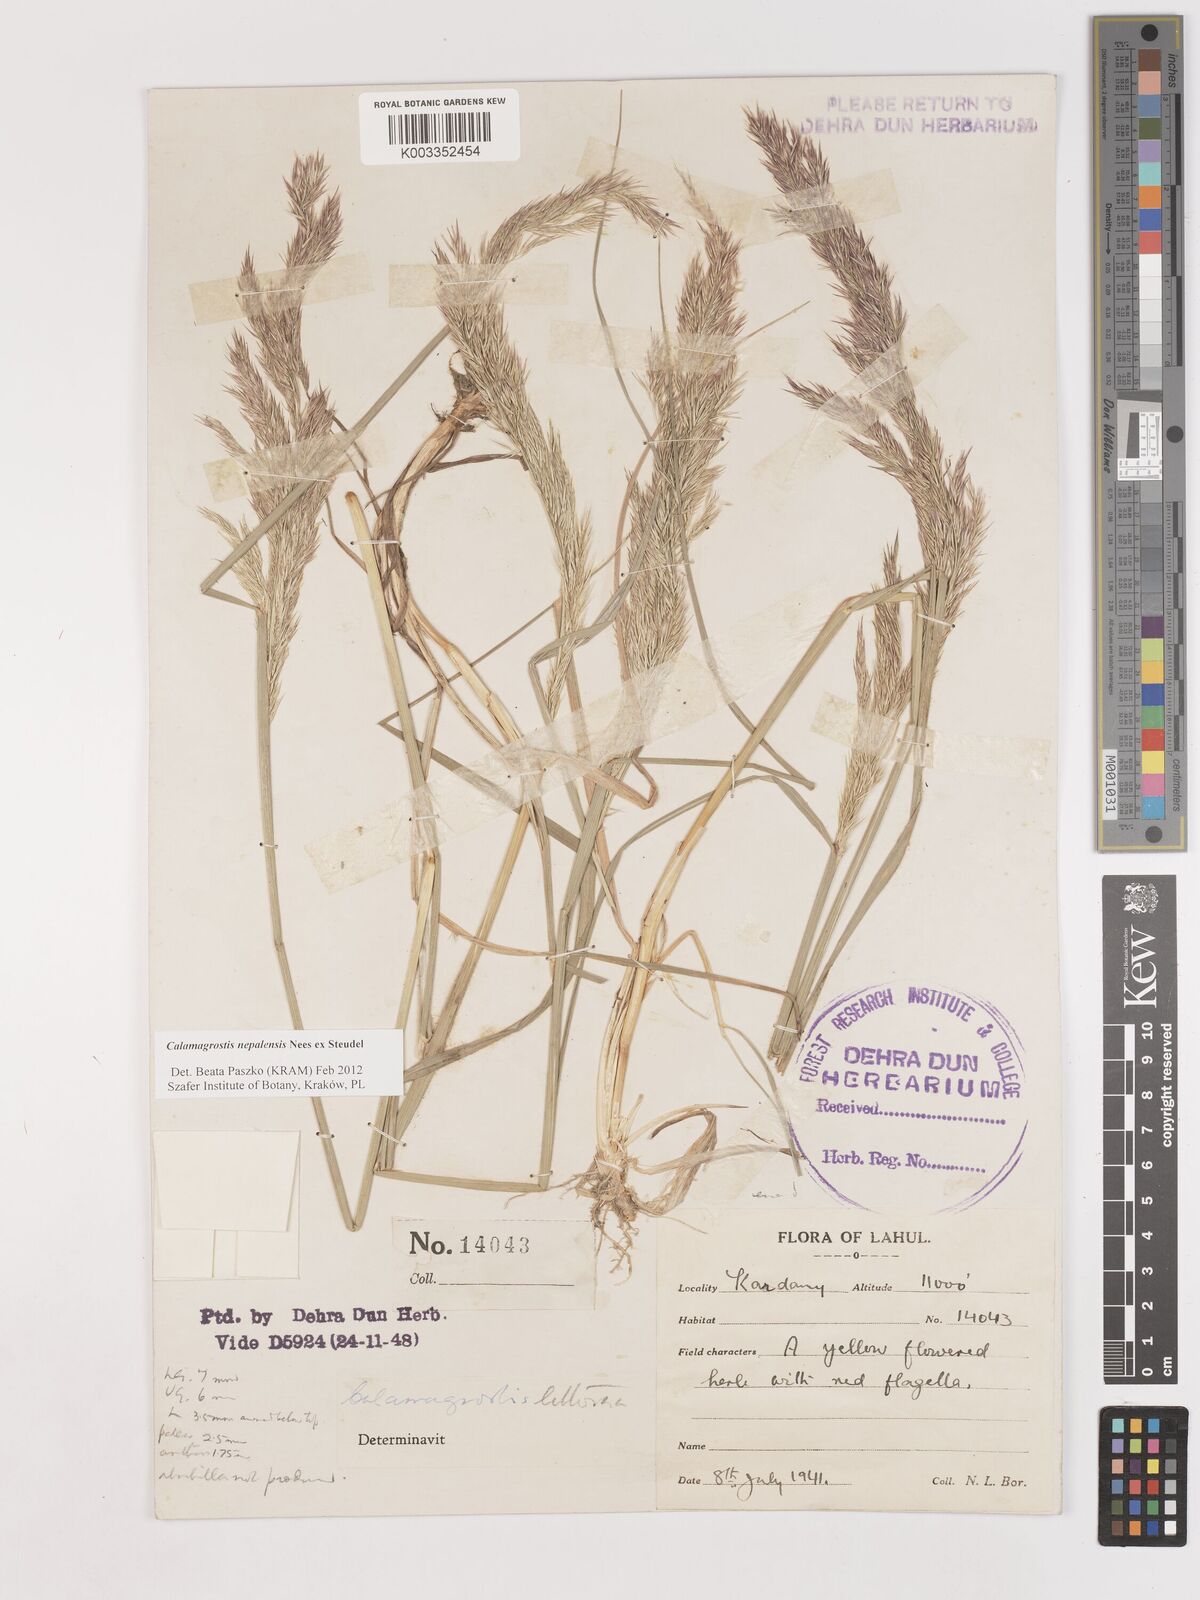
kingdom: Plantae
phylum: Tracheophyta
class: Liliopsida
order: Poales
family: Poaceae
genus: Calamagrostis
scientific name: Calamagrostis pseudophragmites
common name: Coastal small-reed
